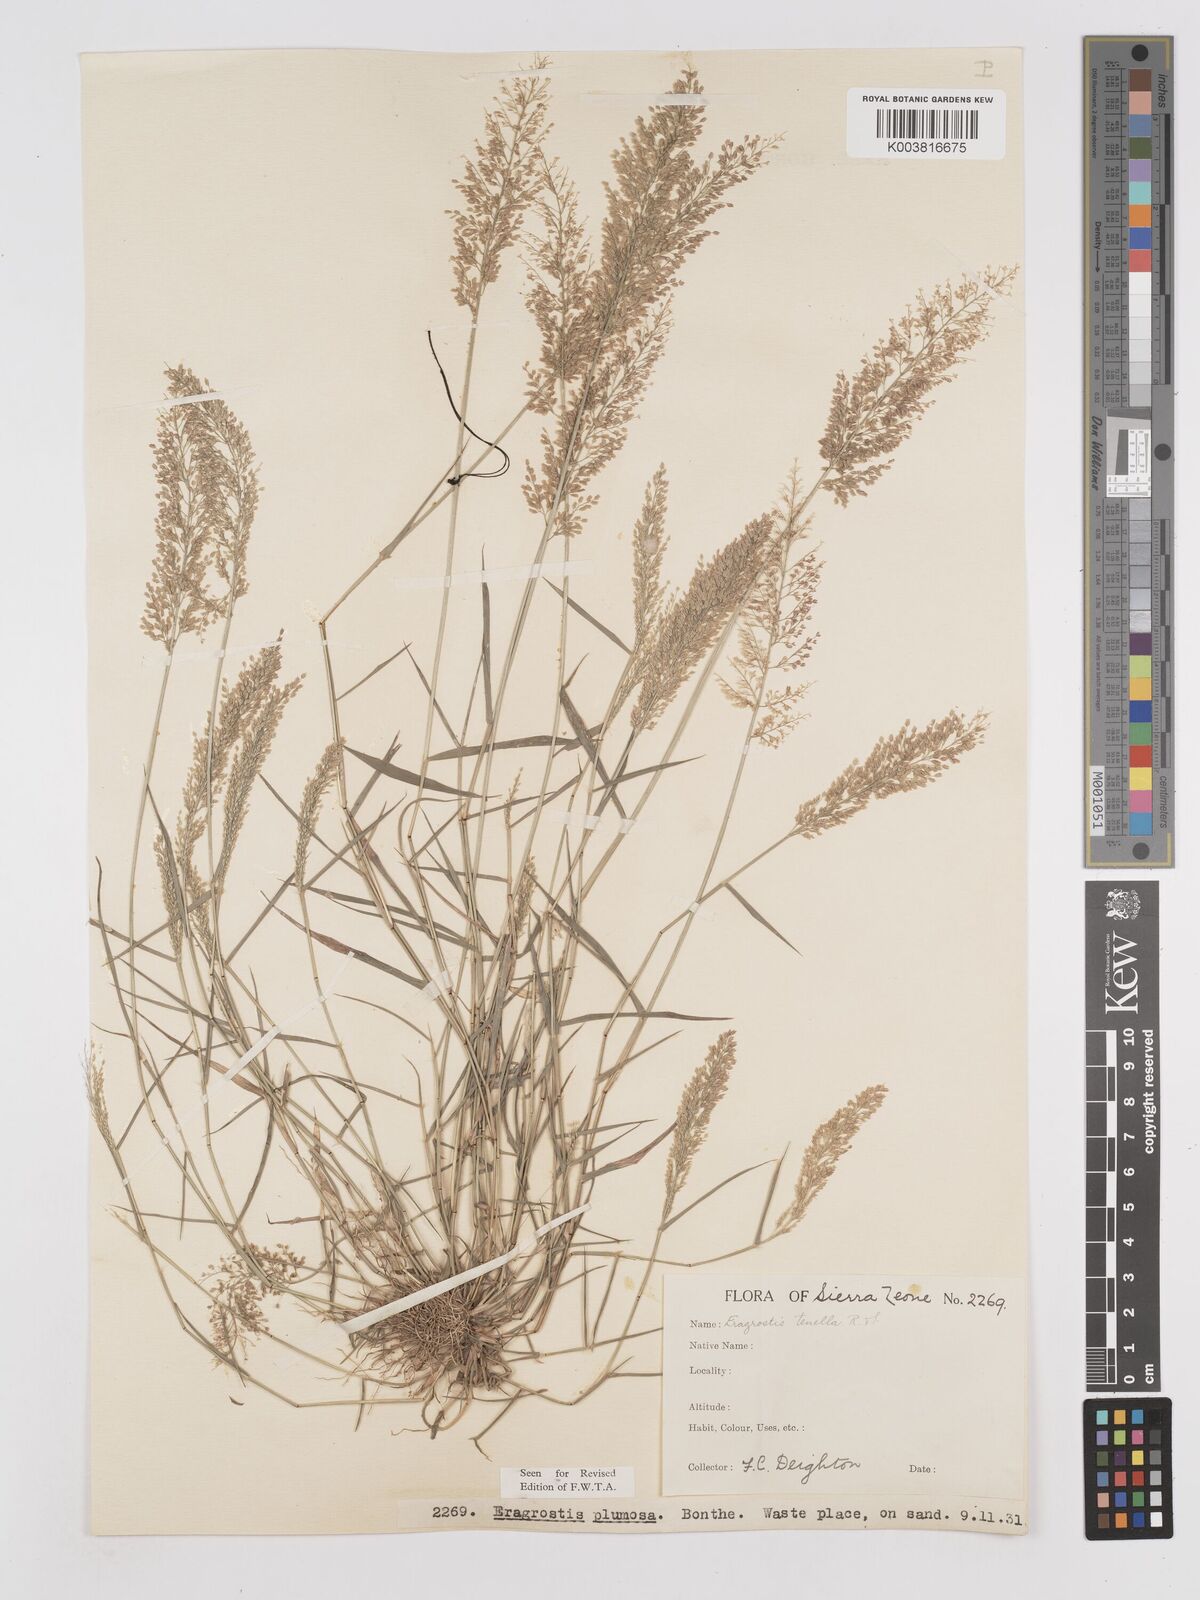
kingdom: Plantae
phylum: Tracheophyta
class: Liliopsida
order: Poales
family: Poaceae
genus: Eragrostis
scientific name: Eragrostis tenella
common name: Japanese lovegrass
